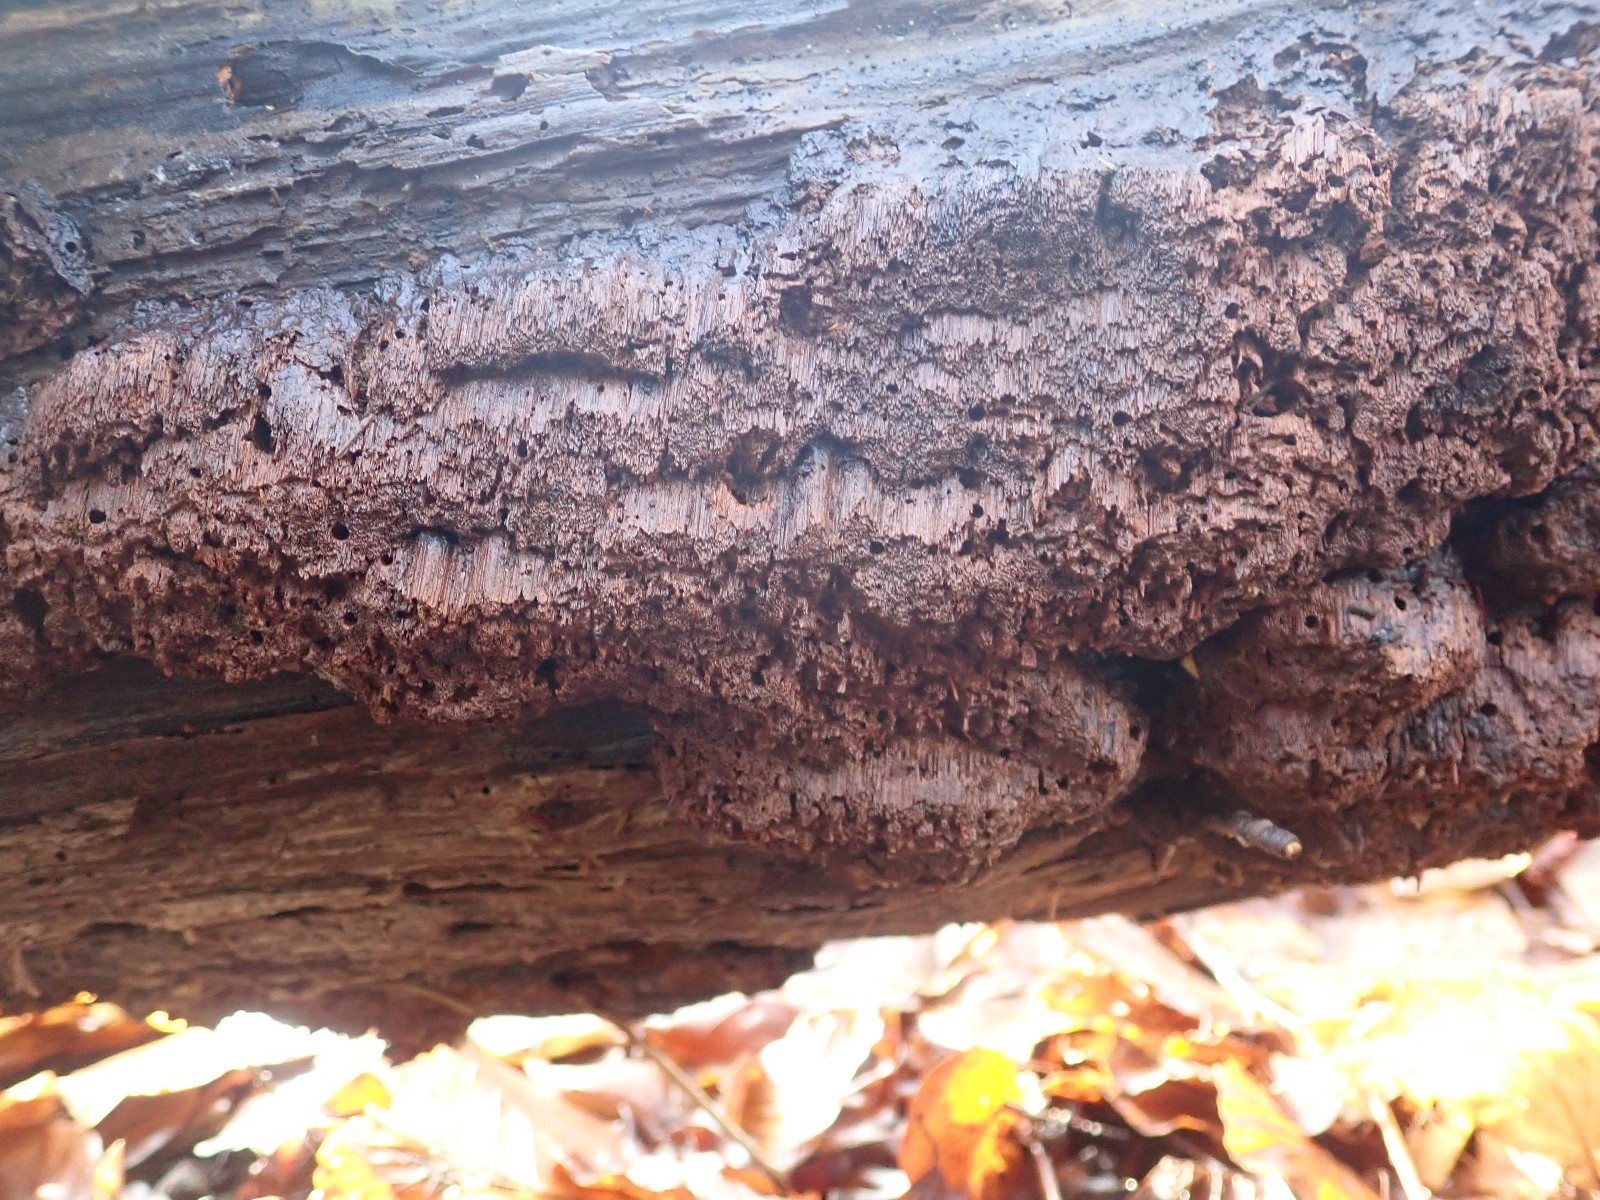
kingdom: Fungi
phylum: Basidiomycota
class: Agaricomycetes
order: Hymenochaetales
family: Hymenochaetaceae
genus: Mensularia
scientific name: Mensularia nodulosa
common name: bøge-spejlporesvamp
